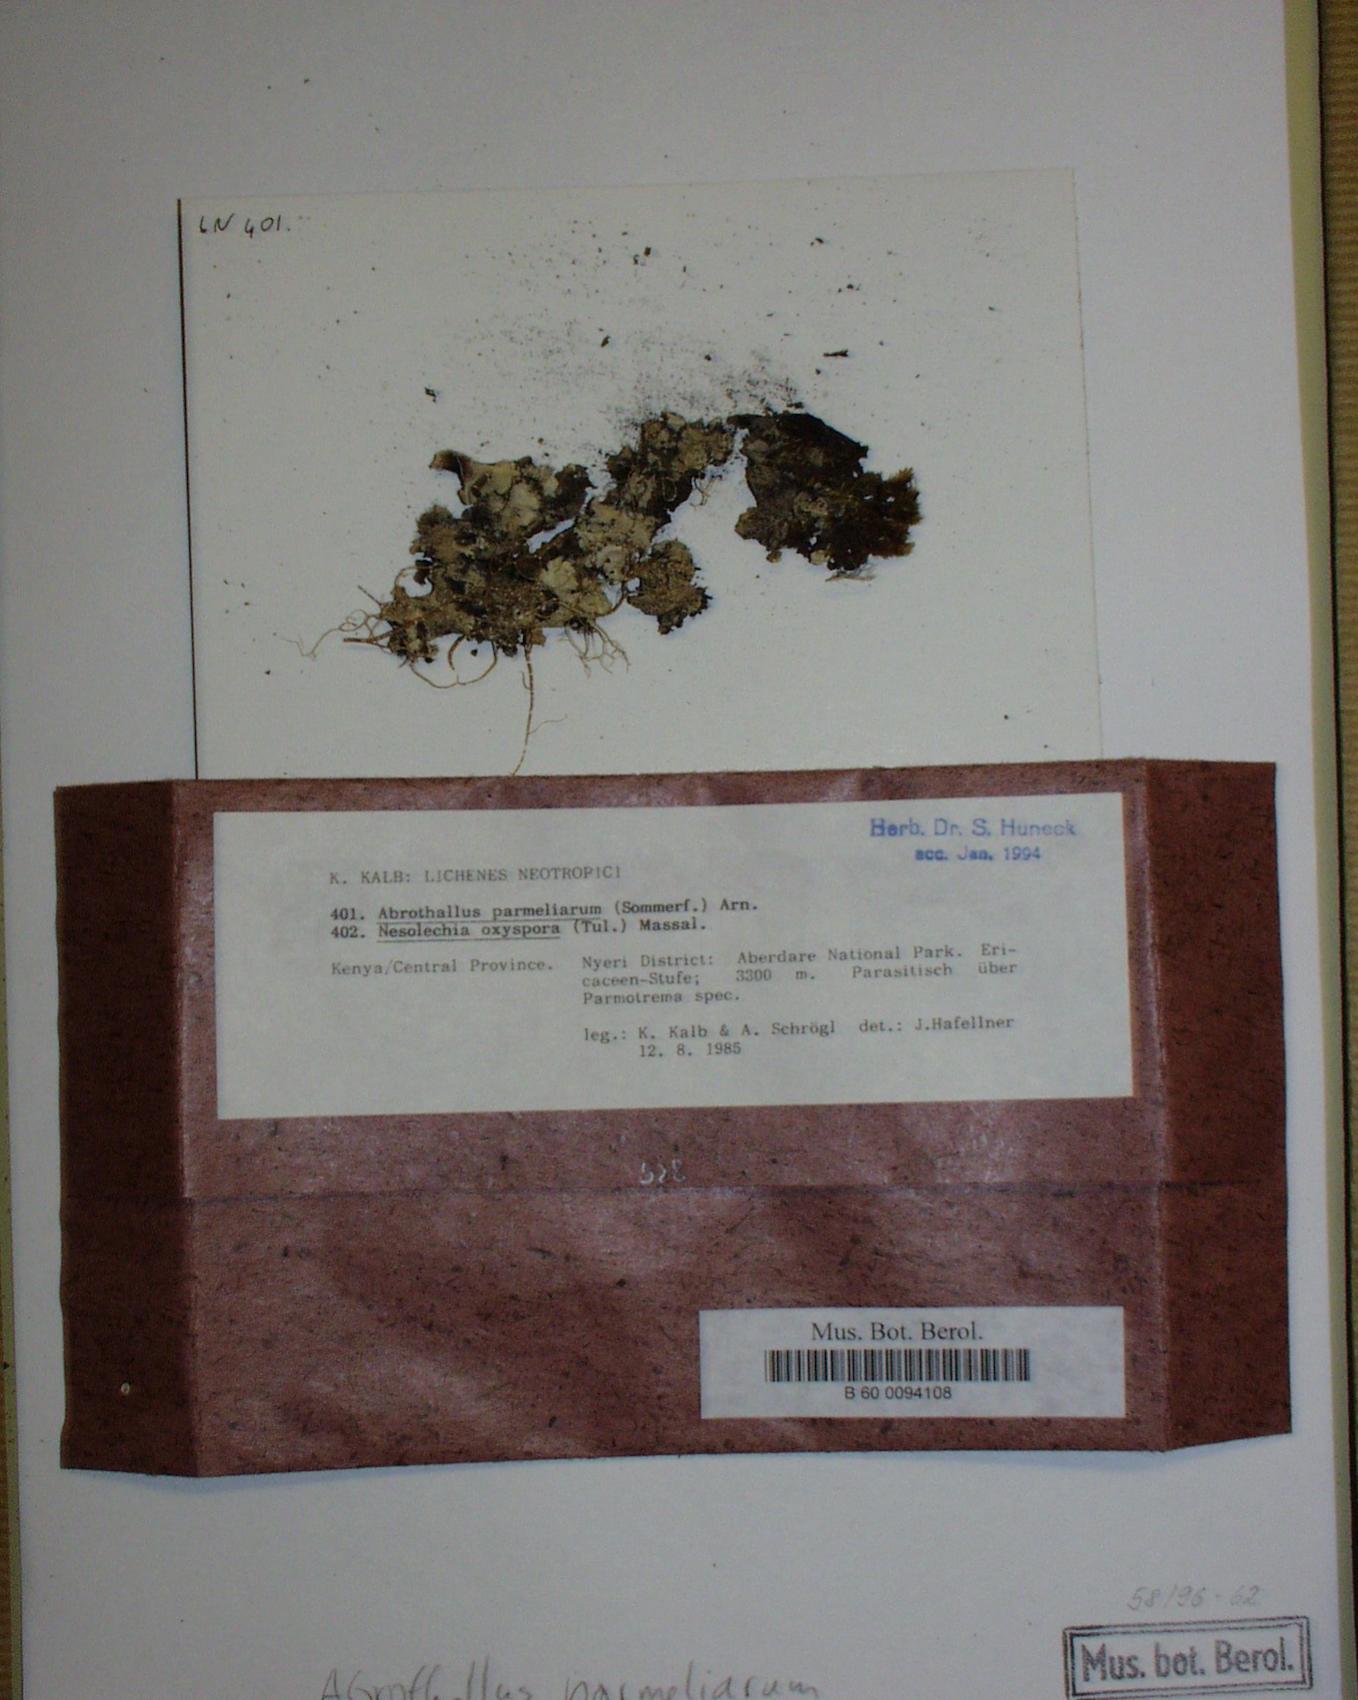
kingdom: Fungi
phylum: Ascomycota
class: Dothideomycetes
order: Abrothallales
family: Abrothallaceae
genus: Abrothallus
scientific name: Abrothallus parmeliarum
